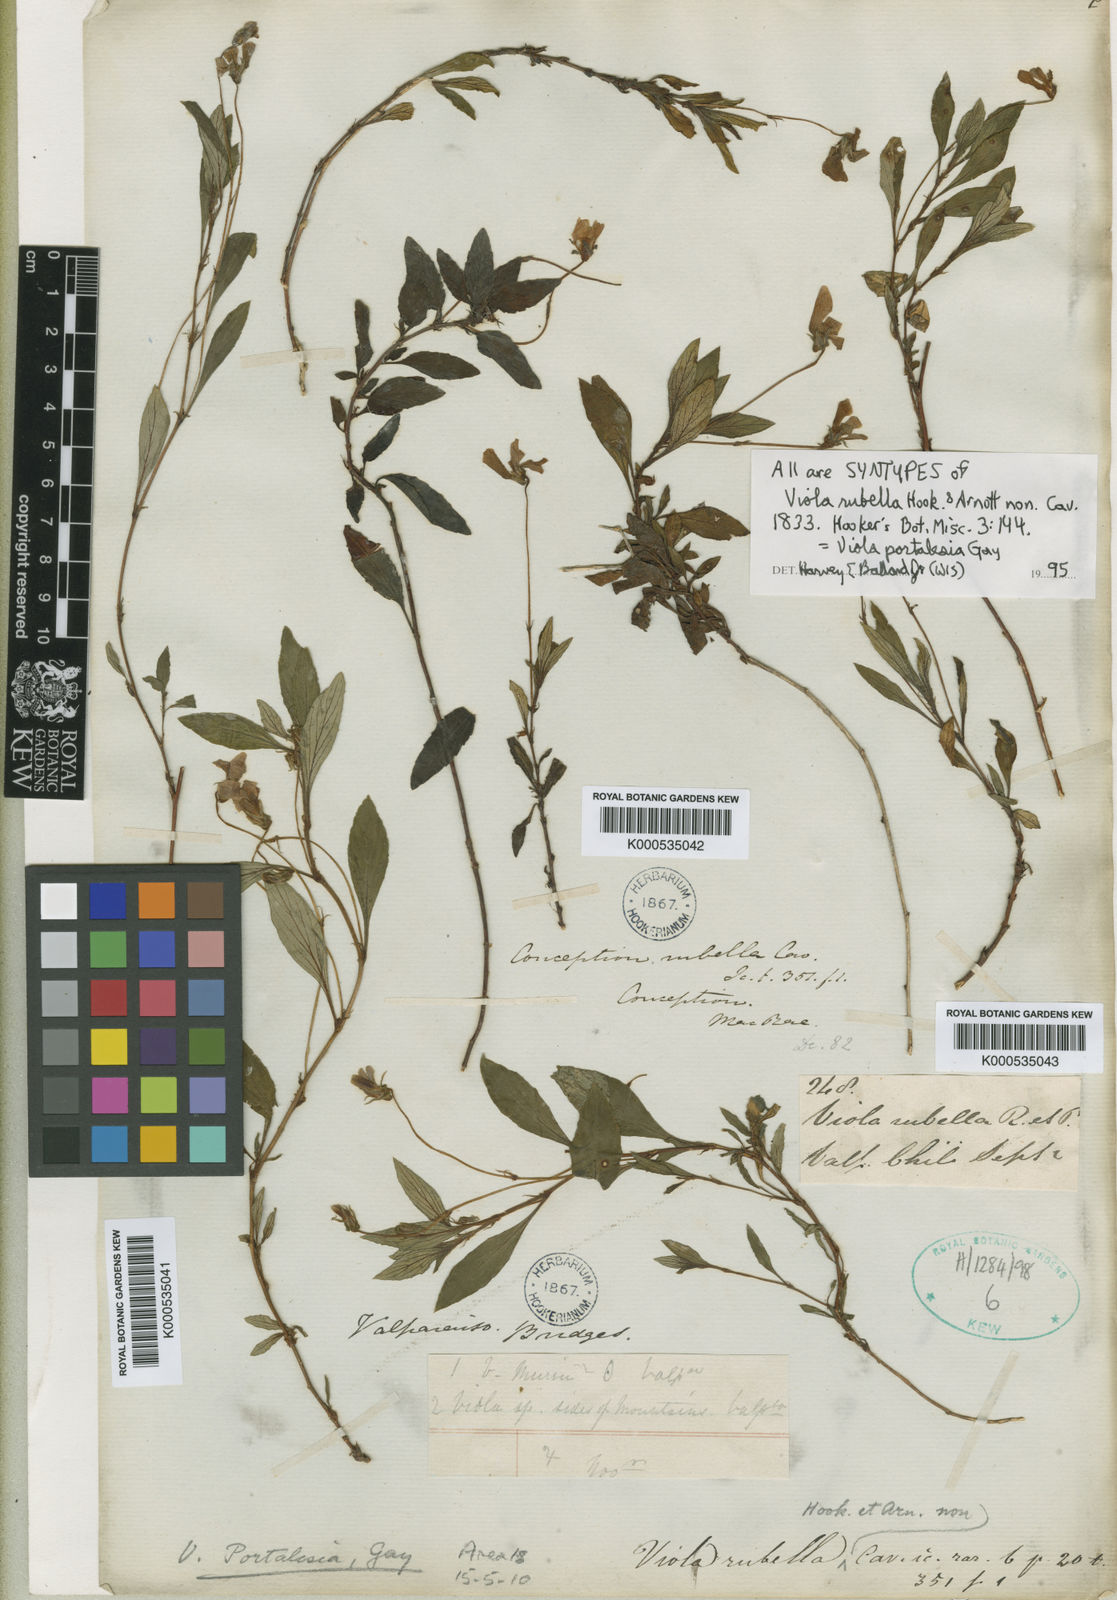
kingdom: Plantae
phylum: Tracheophyta
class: Magnoliopsida
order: Malpighiales
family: Violaceae
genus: Viola
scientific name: Viola portalesia
